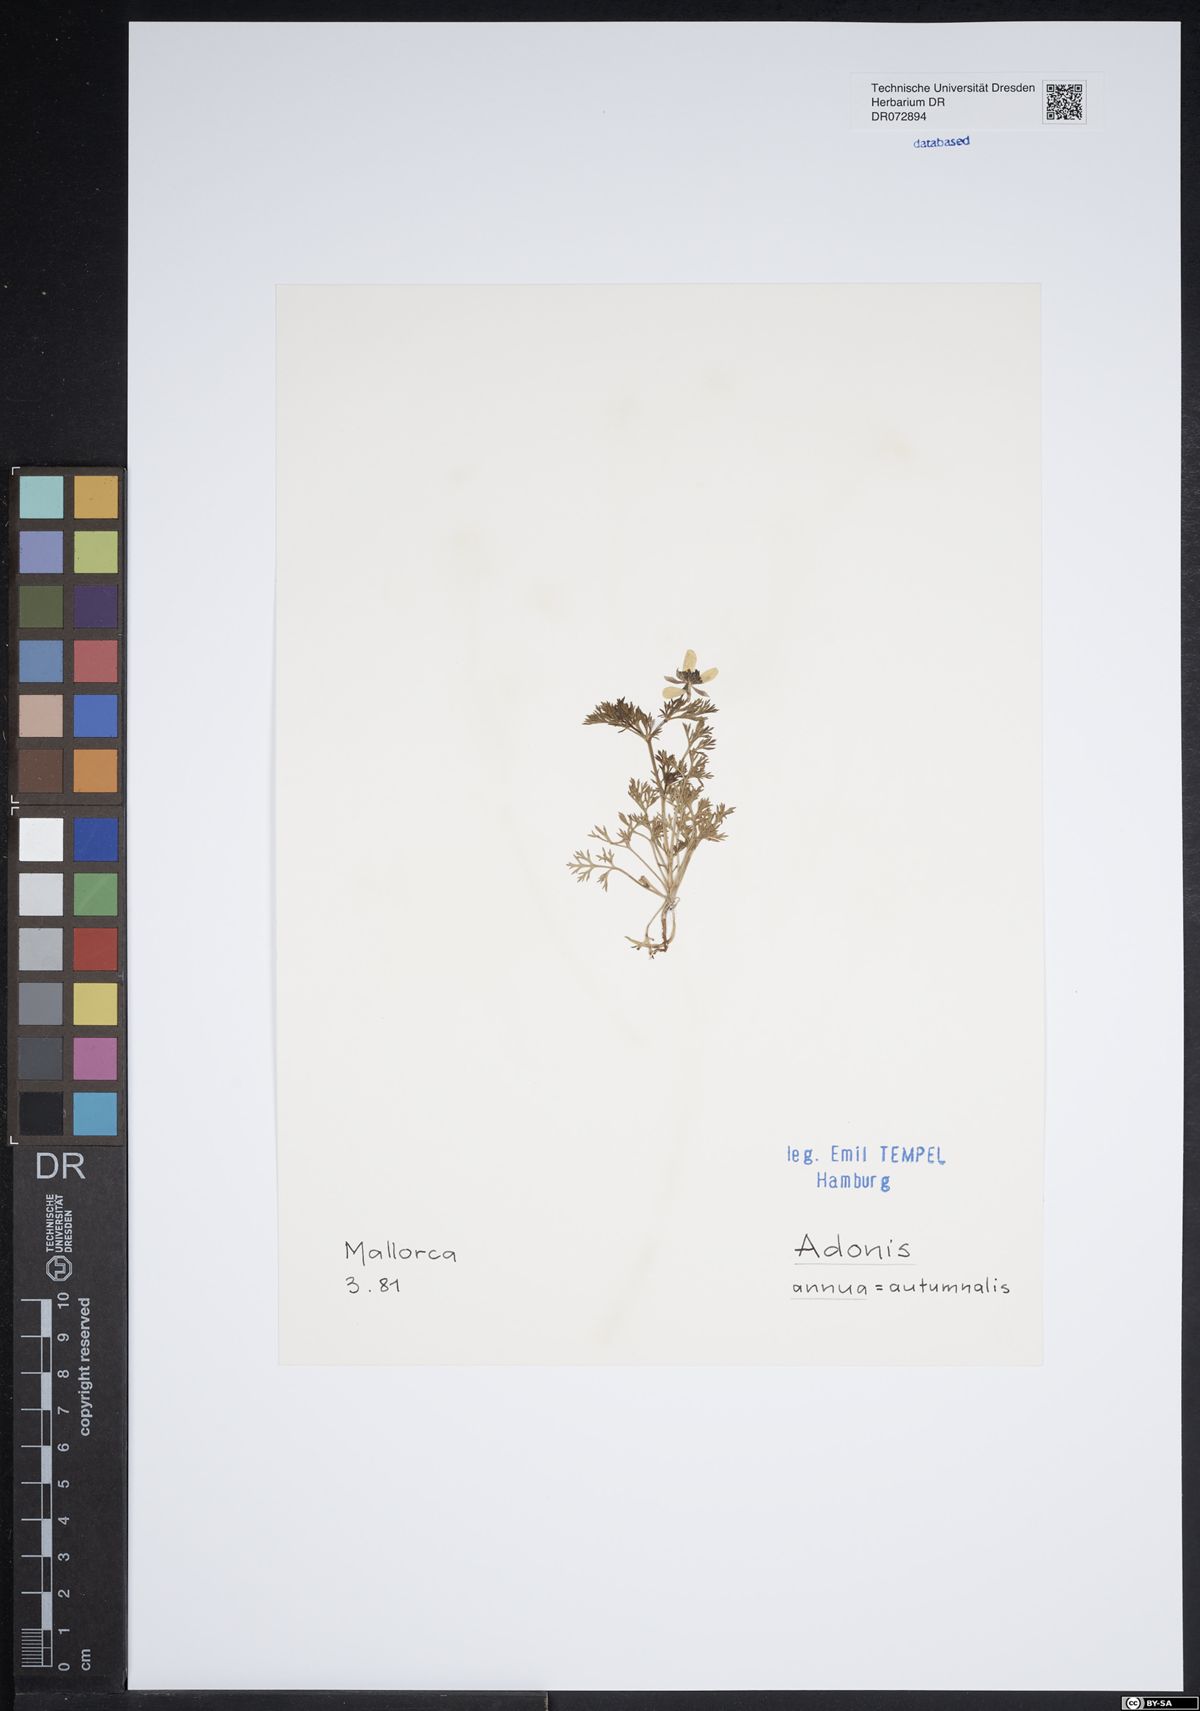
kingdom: Plantae
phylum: Tracheophyta
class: Magnoliopsida
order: Ranunculales
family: Ranunculaceae
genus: Adonis
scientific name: Adonis annua
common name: Pheasant's-eye
